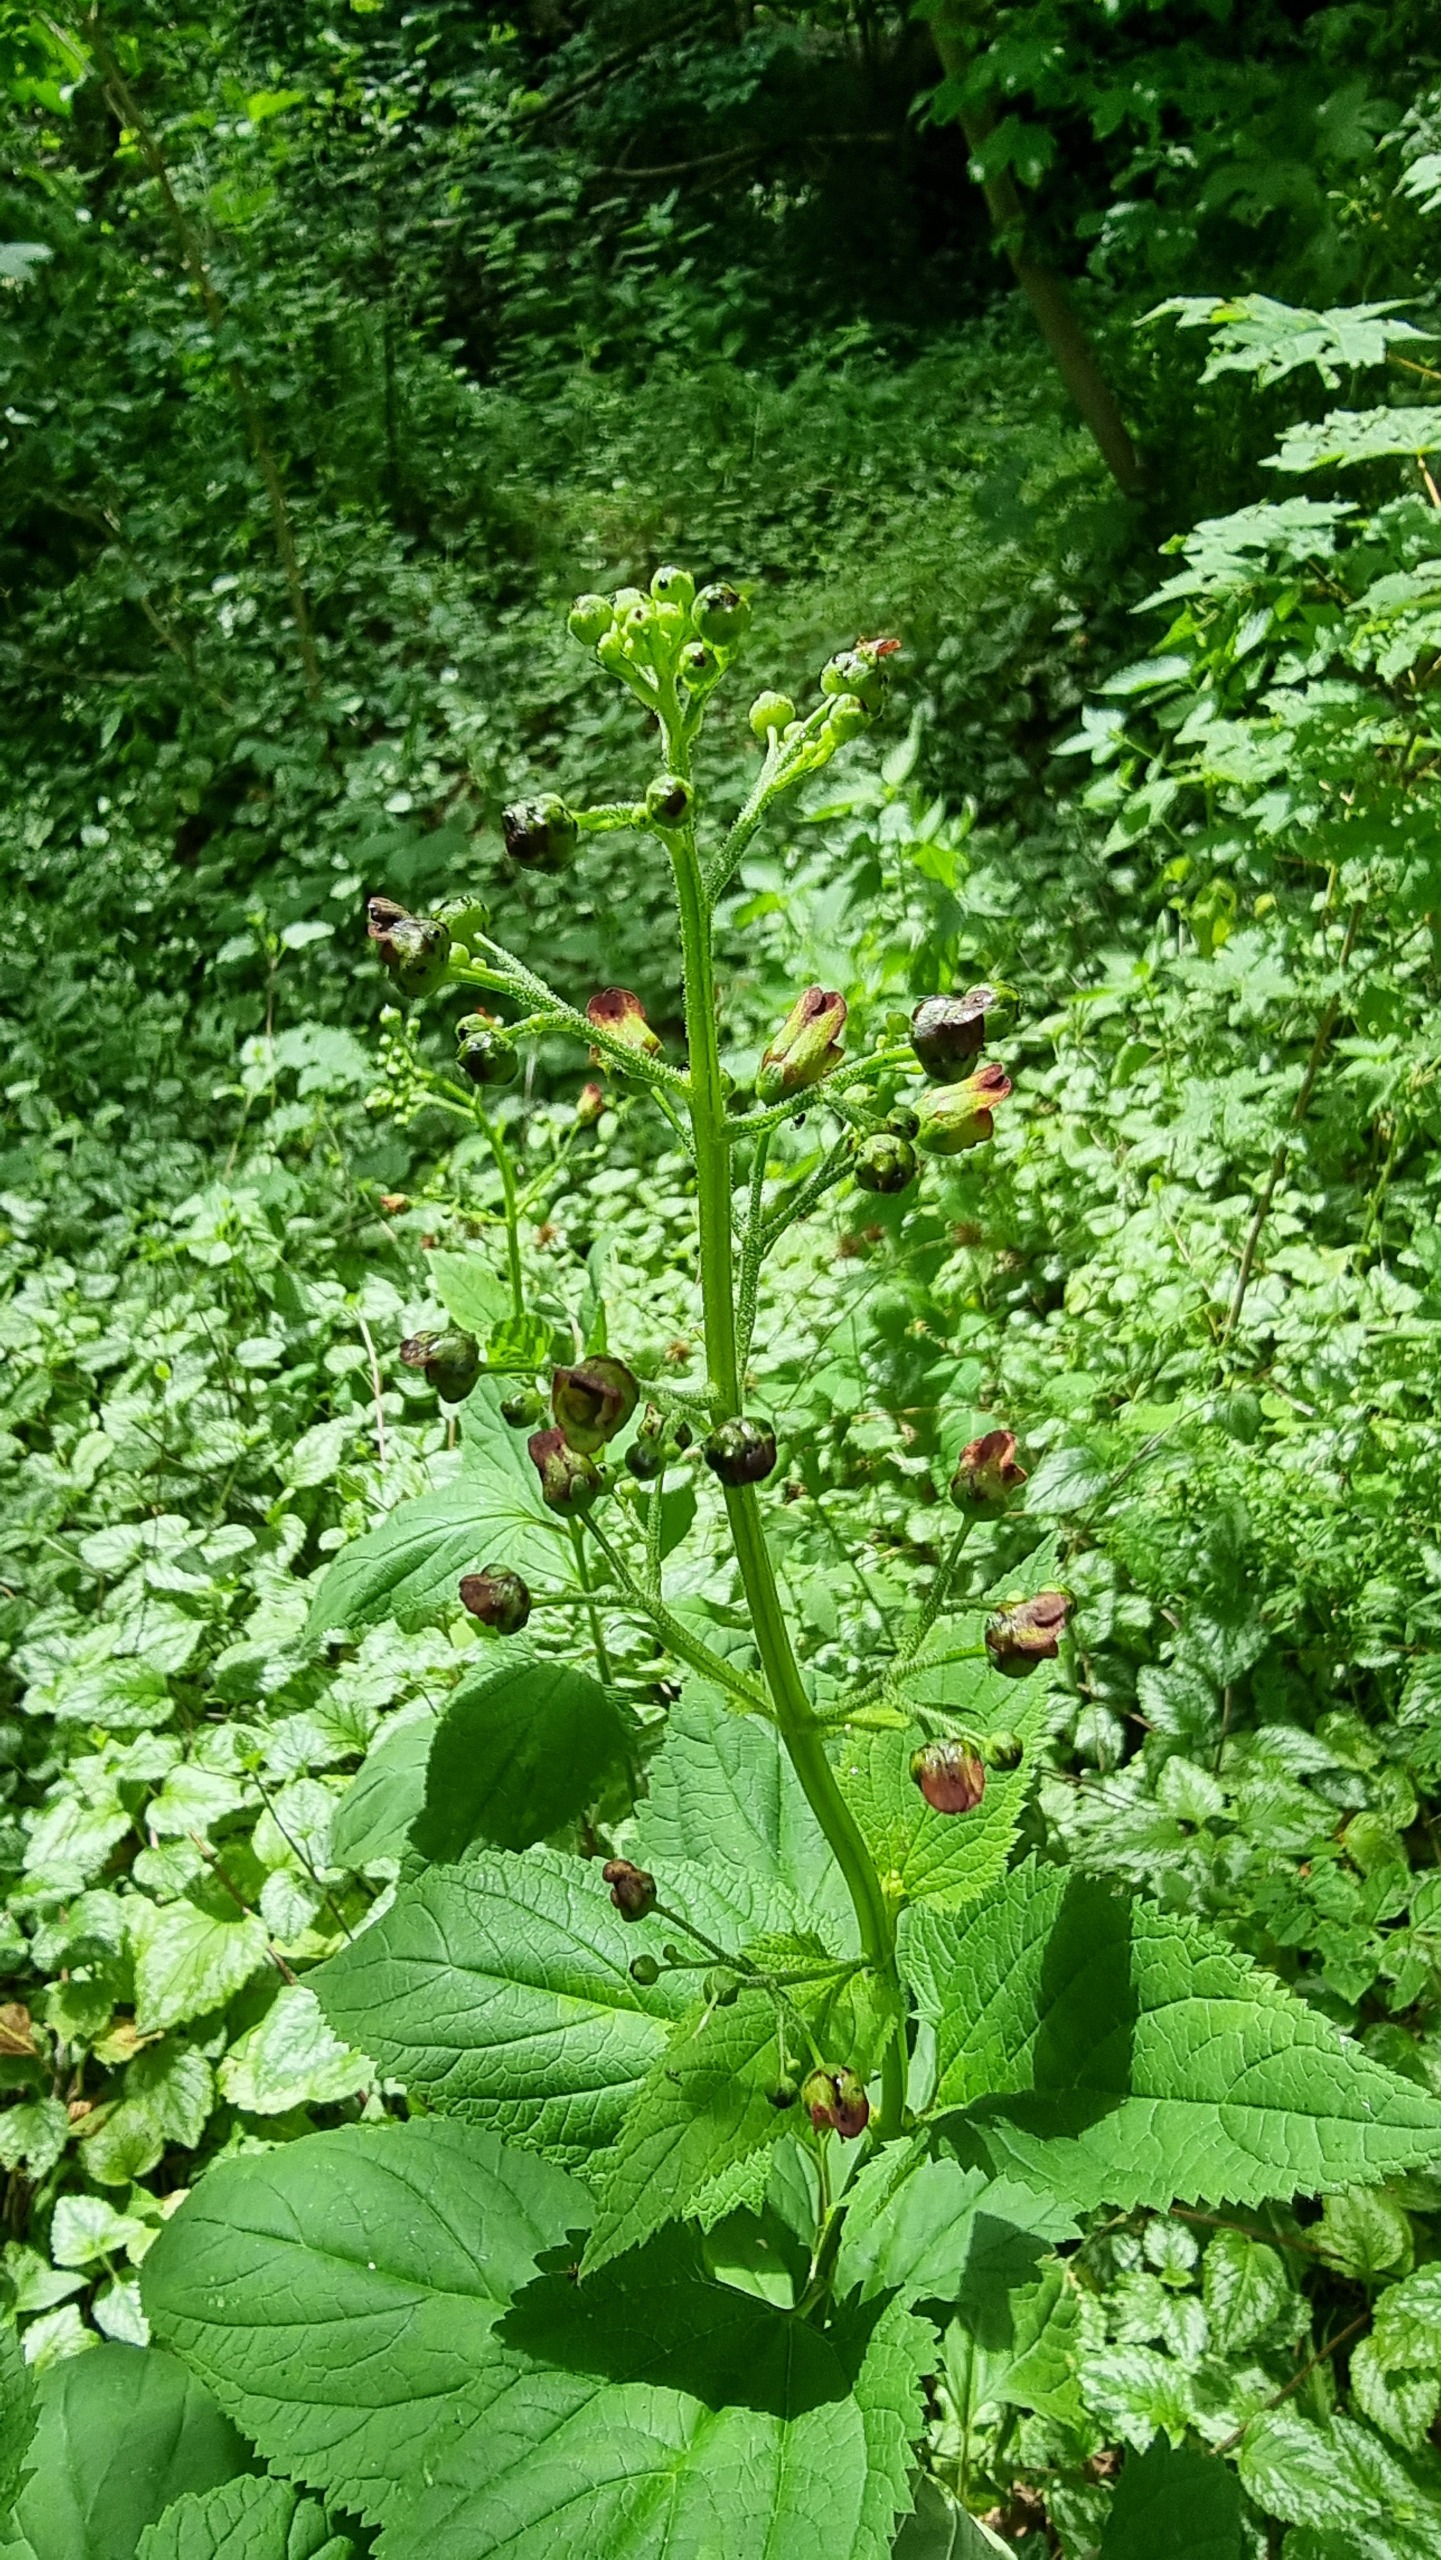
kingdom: Plantae
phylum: Tracheophyta
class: Magnoliopsida
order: Lamiales
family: Scrophulariaceae
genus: Scrophularia
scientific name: Scrophularia nodosa
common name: Knoldet brunrod
